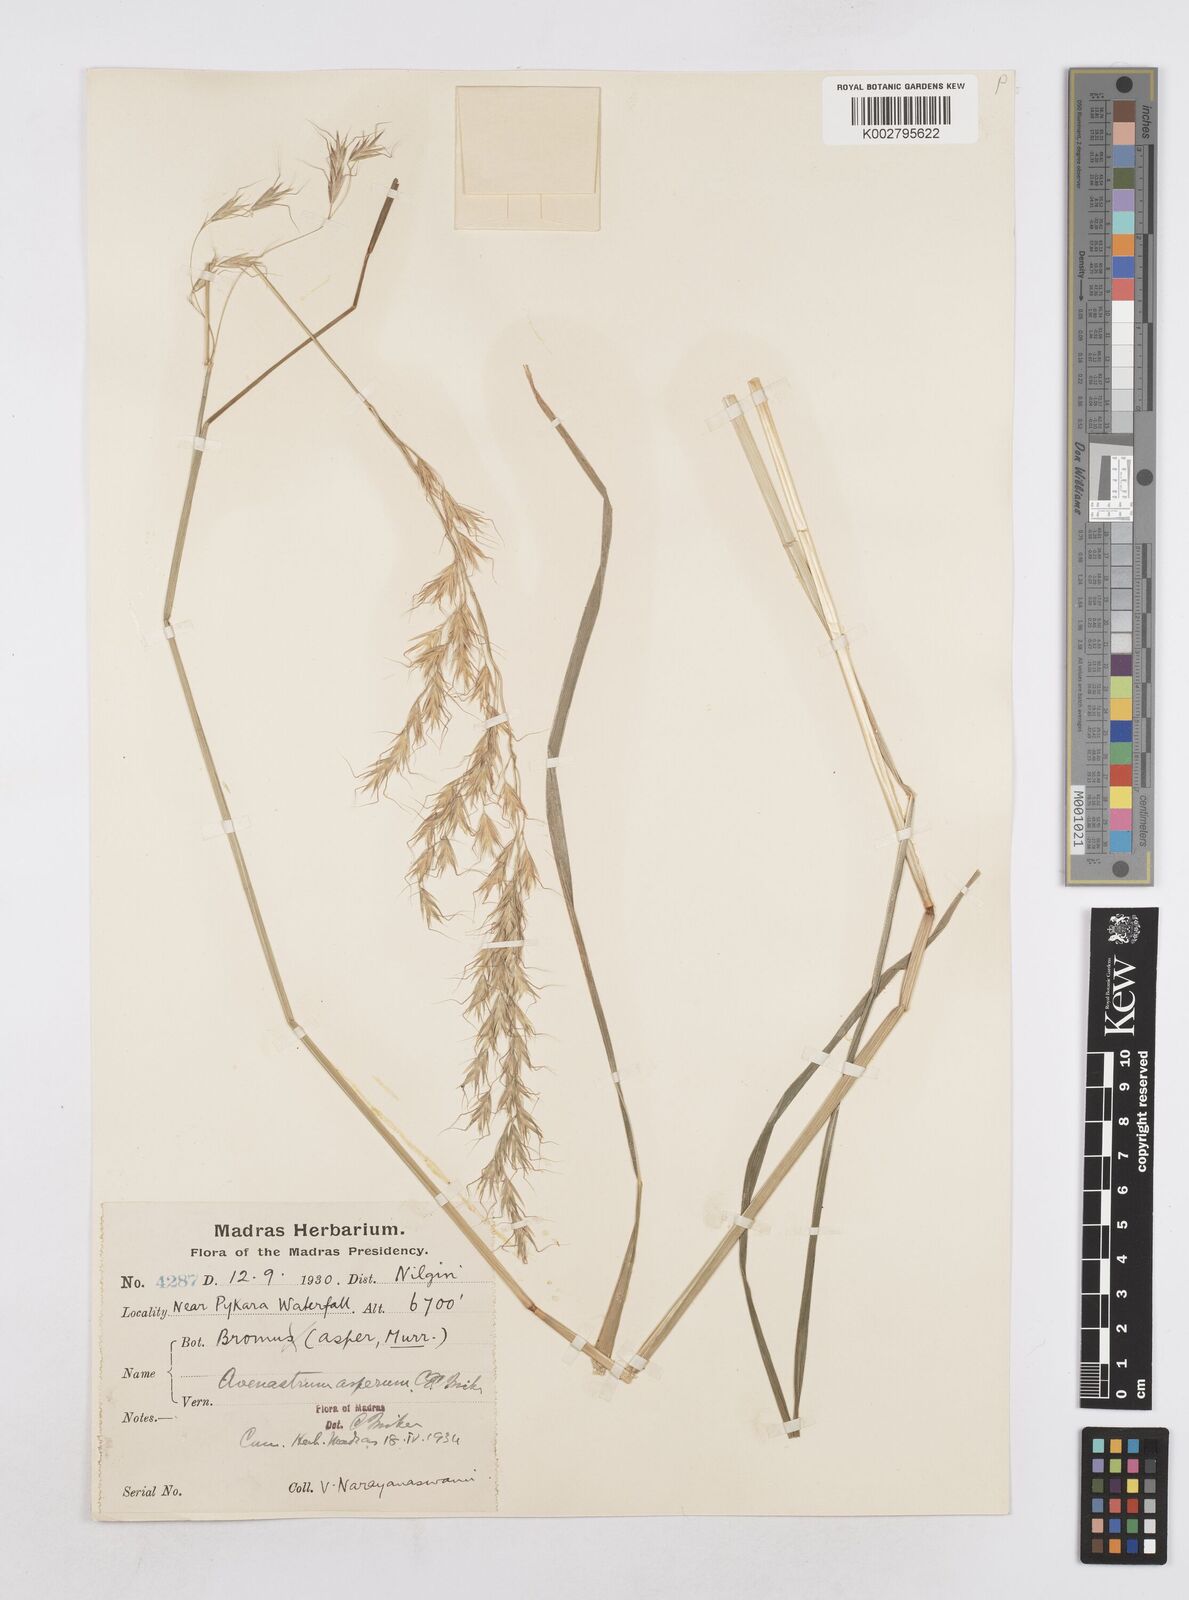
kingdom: Plantae
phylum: Tracheophyta
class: Liliopsida
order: Poales
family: Poaceae
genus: Helictotrichon
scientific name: Helictotrichon
